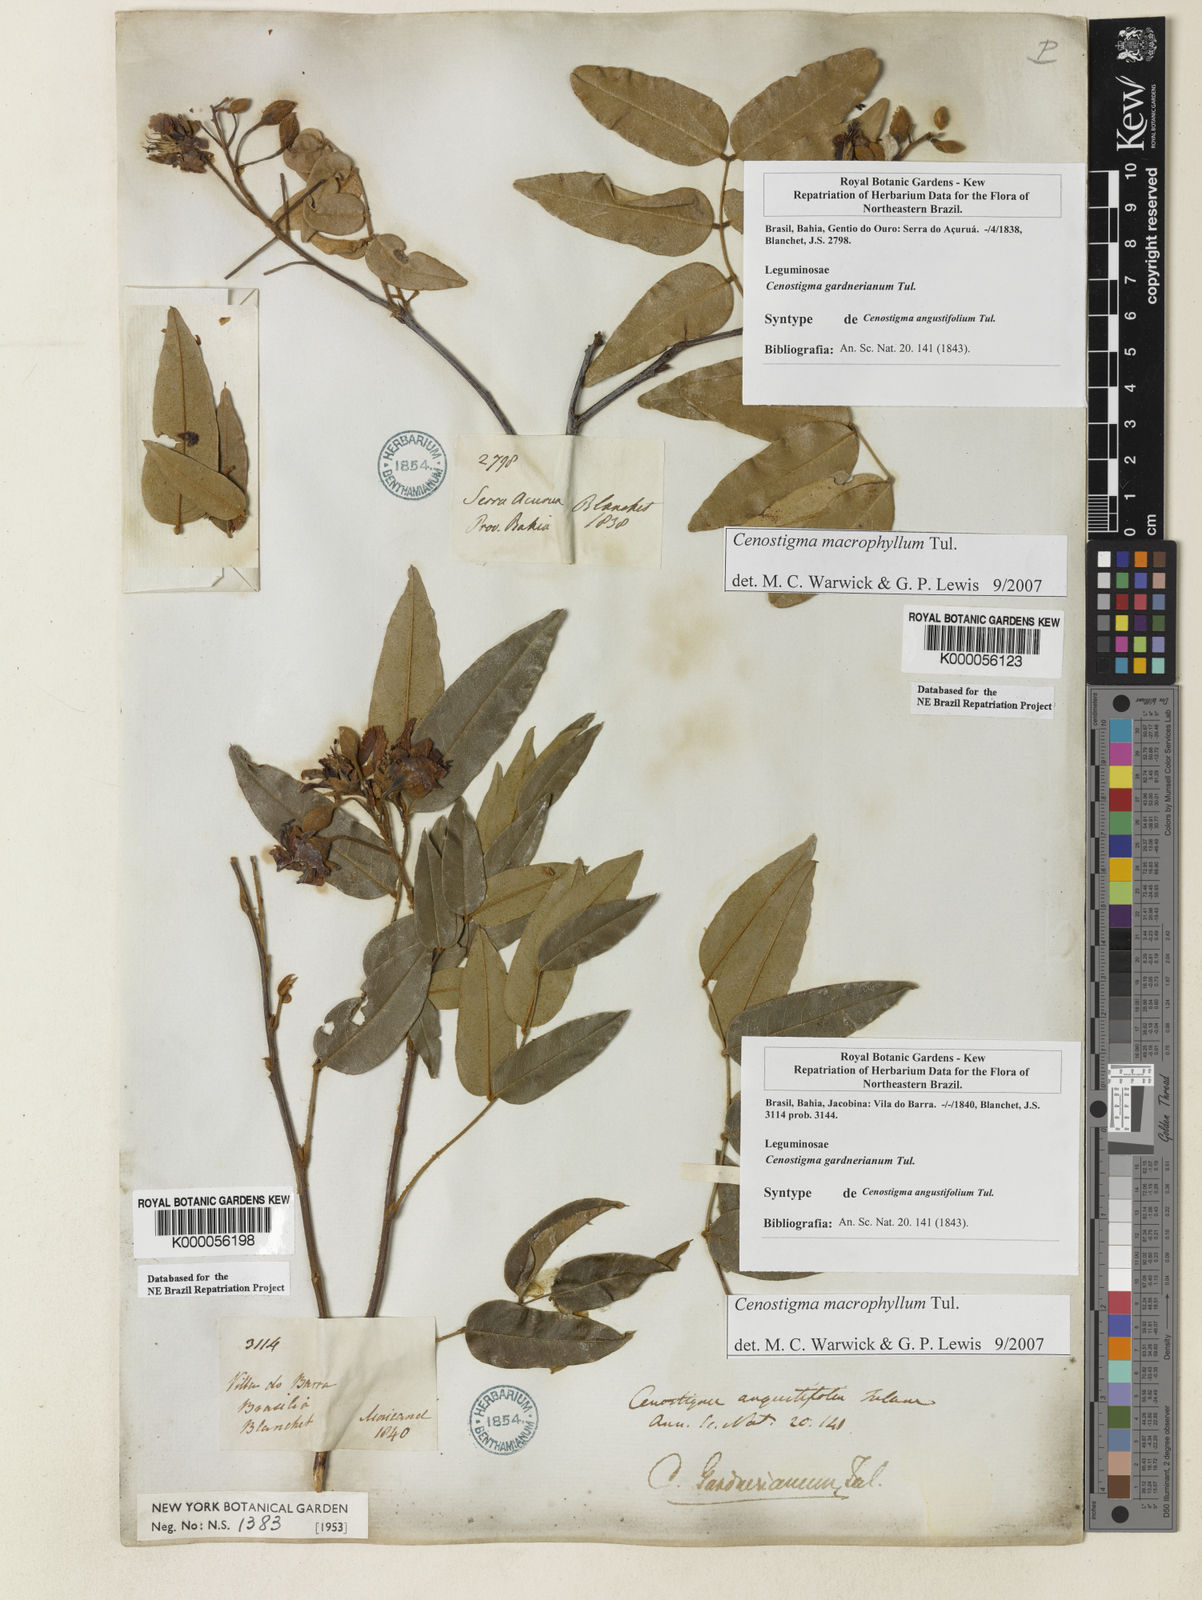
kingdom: Plantae
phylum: Tracheophyta
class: Magnoliopsida
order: Fabales
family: Fabaceae
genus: Cenostigma
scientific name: Cenostigma macrophyllum
